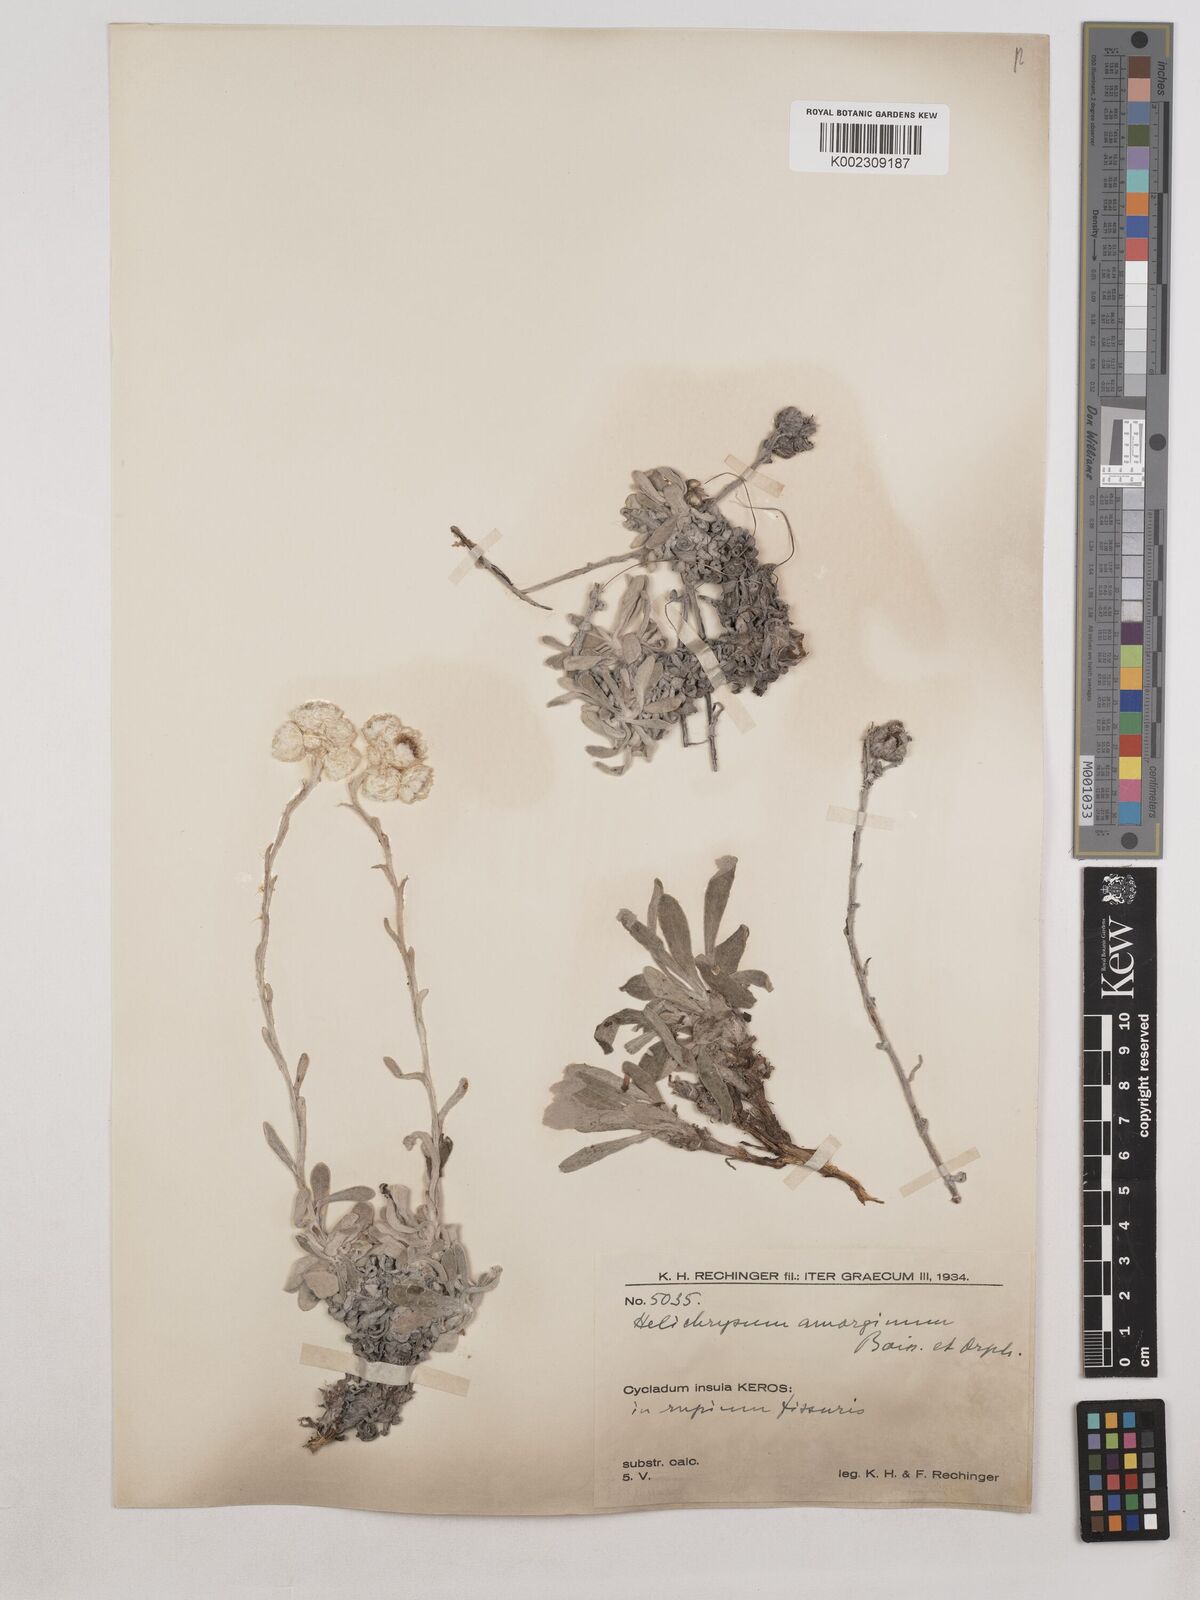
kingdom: Plantae
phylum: Tracheophyta
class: Magnoliopsida
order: Asterales
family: Asteraceae
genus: Helichrysum
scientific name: Helichrysum amorginum
